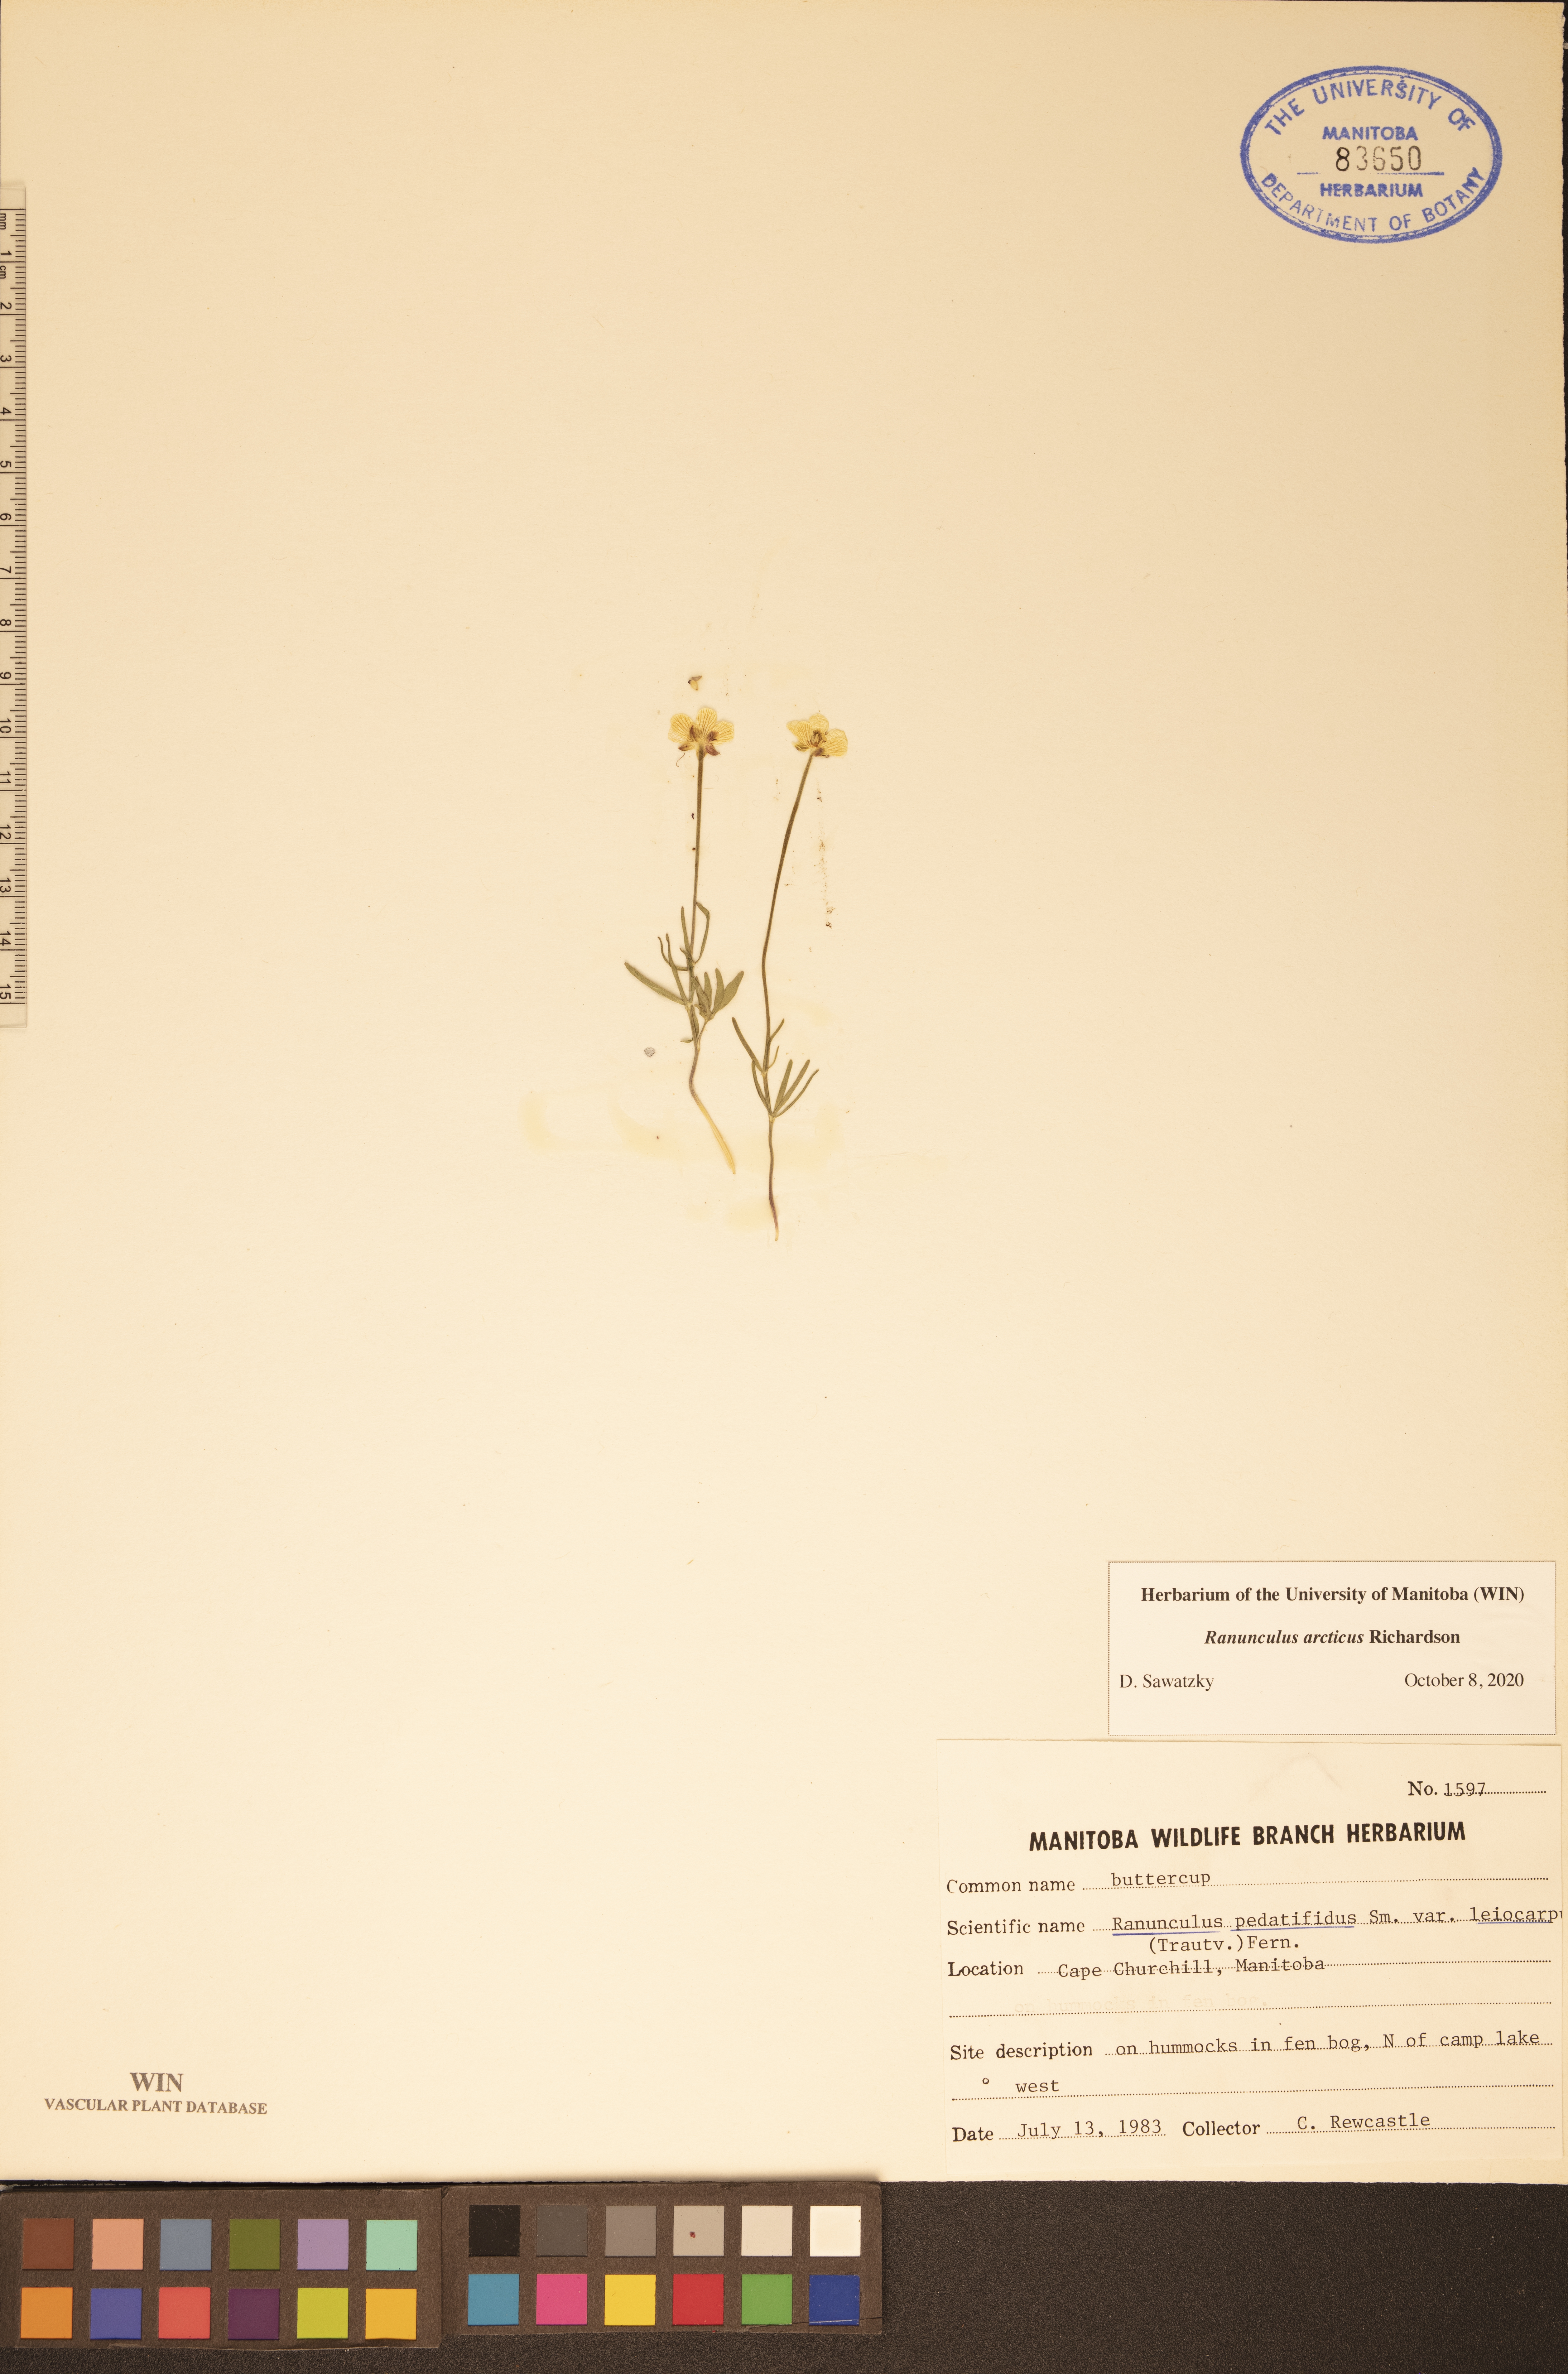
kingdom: Plantae
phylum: Tracheophyta
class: Magnoliopsida
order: Ranunculales
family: Ranunculaceae
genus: Ranunculus
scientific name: Ranunculus arcticus
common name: Bird's-foot buttercup
